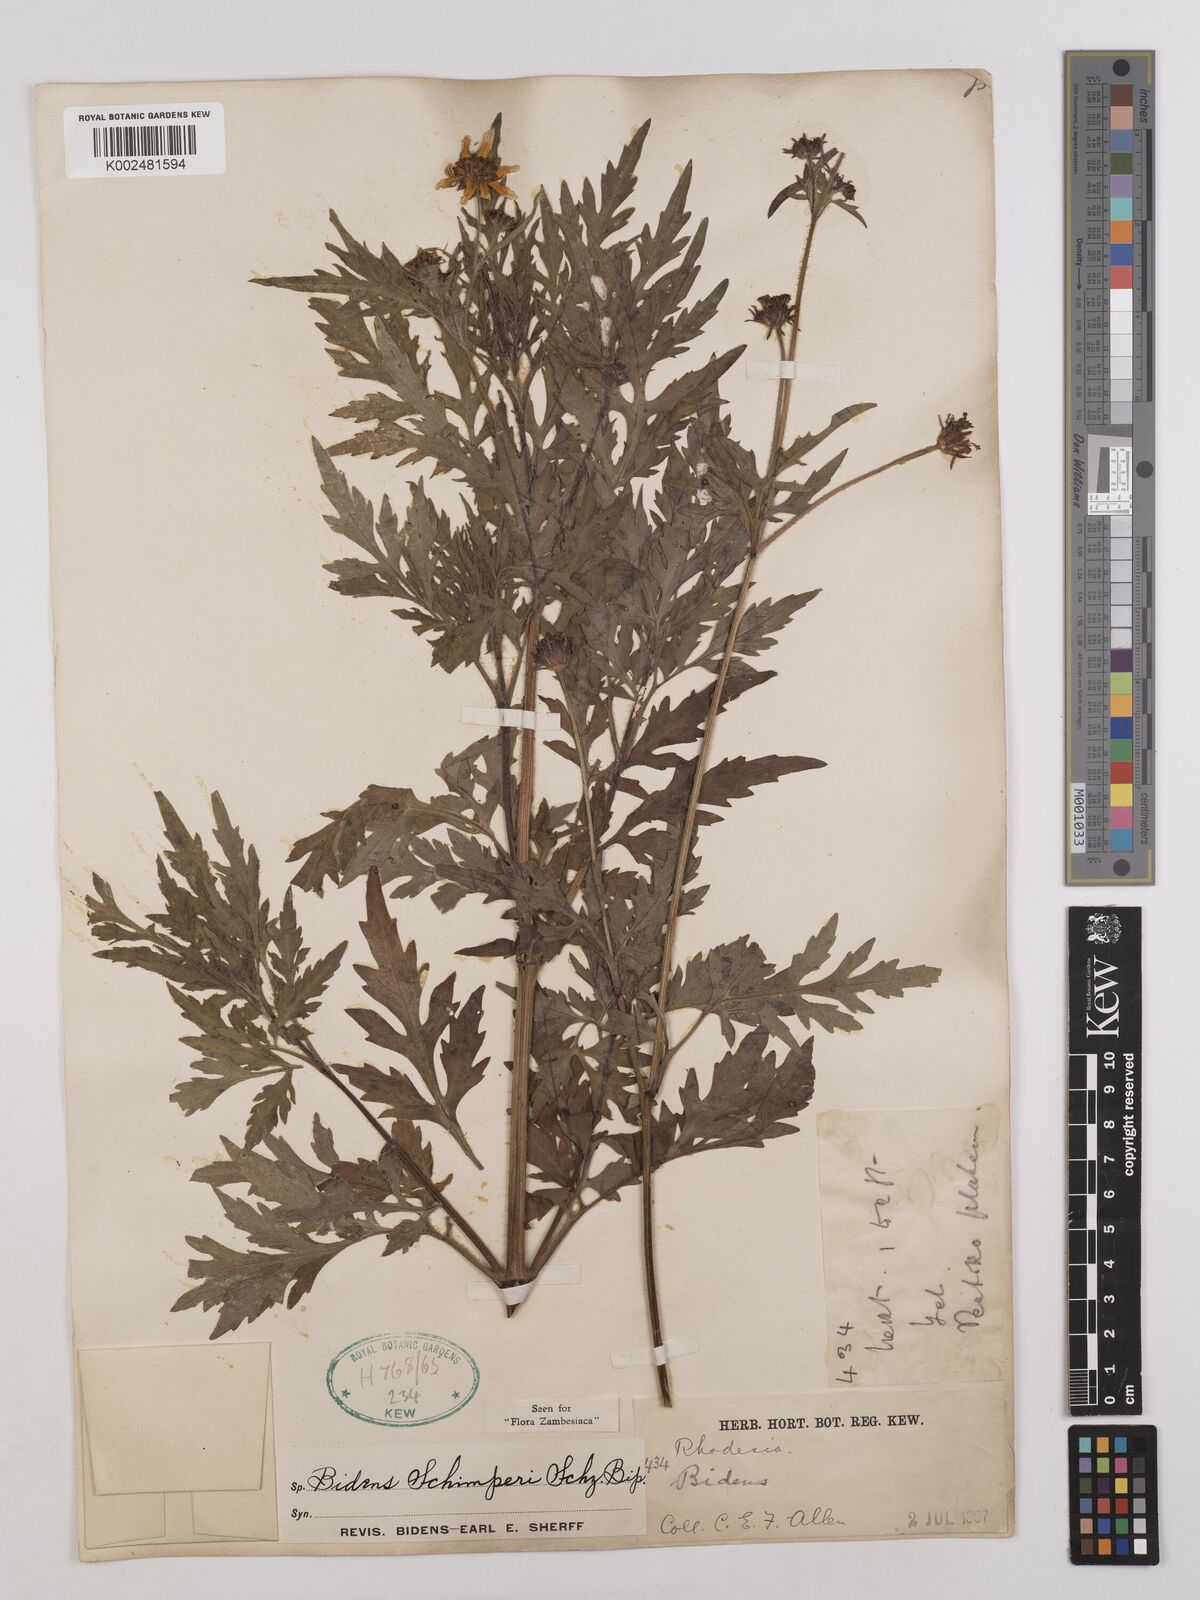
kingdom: Plantae
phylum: Tracheophyta
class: Magnoliopsida
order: Asterales
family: Asteraceae
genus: Bidens
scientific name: Bidens schimperi
